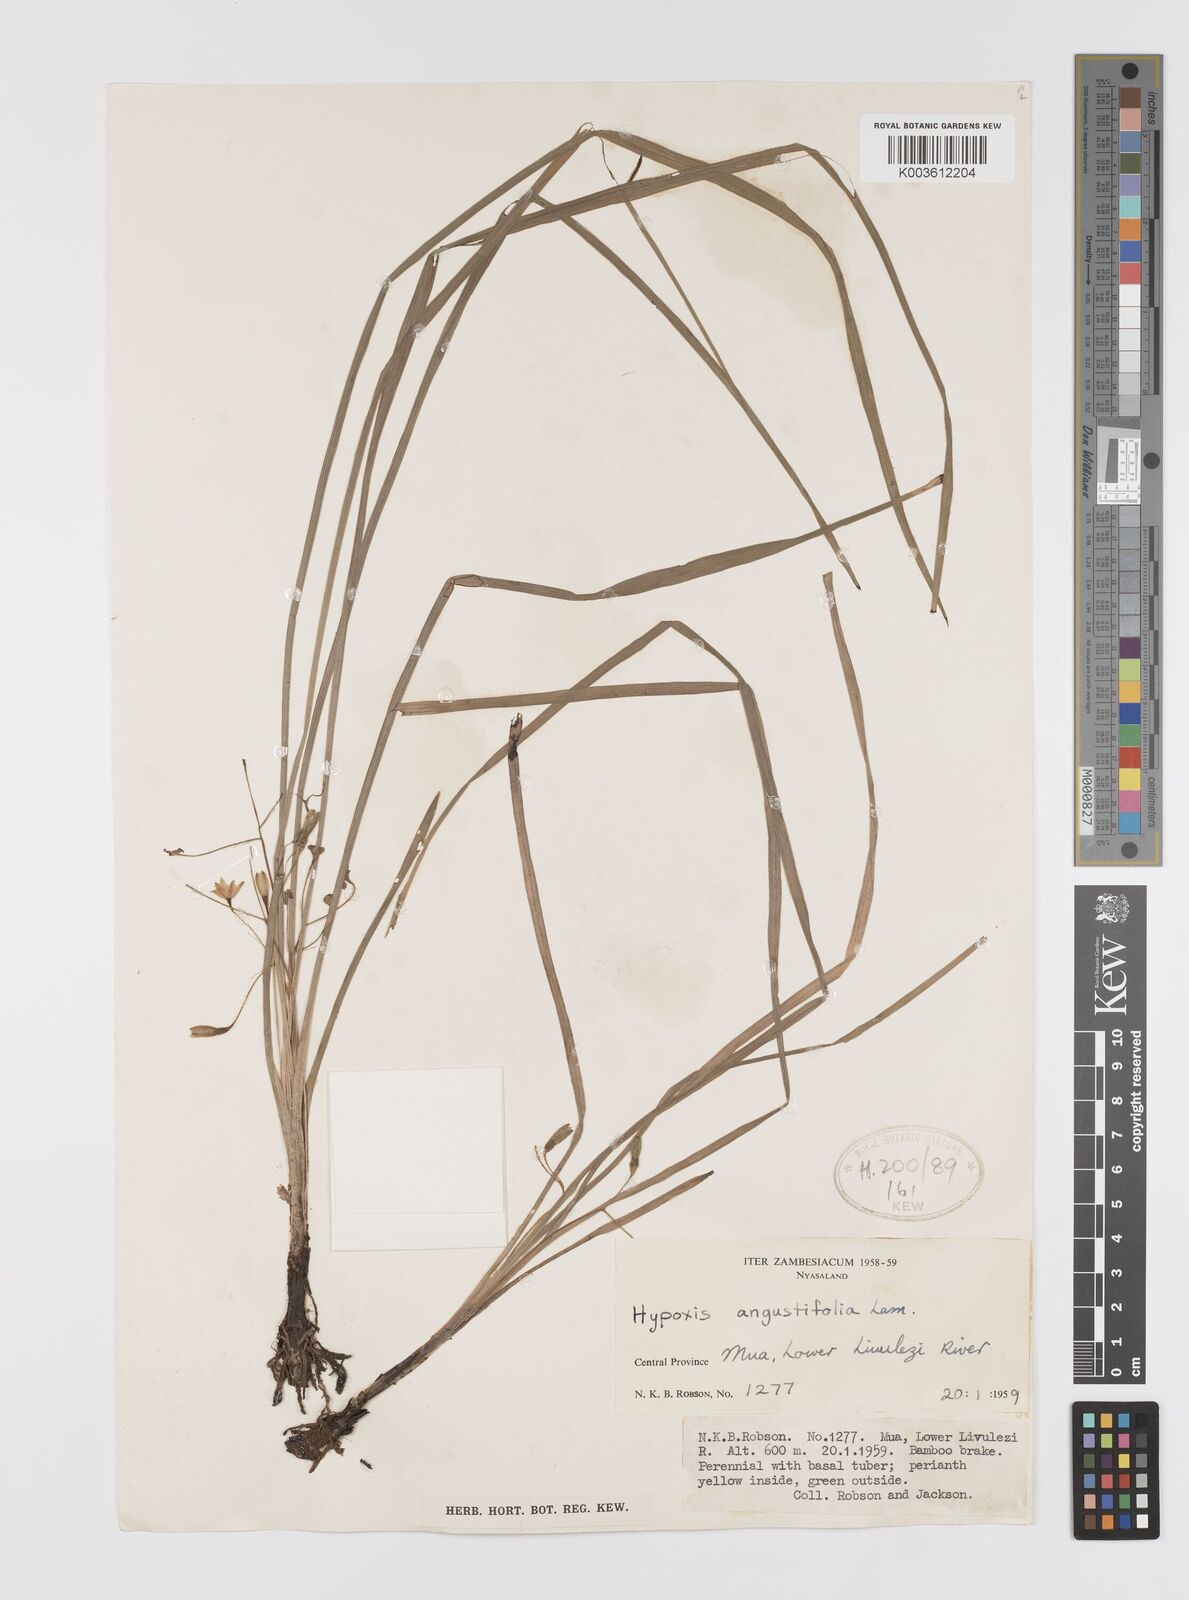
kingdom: Plantae
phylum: Tracheophyta
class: Liliopsida
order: Asparagales
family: Hypoxidaceae
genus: Hypoxis
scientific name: Hypoxis angustifolia
